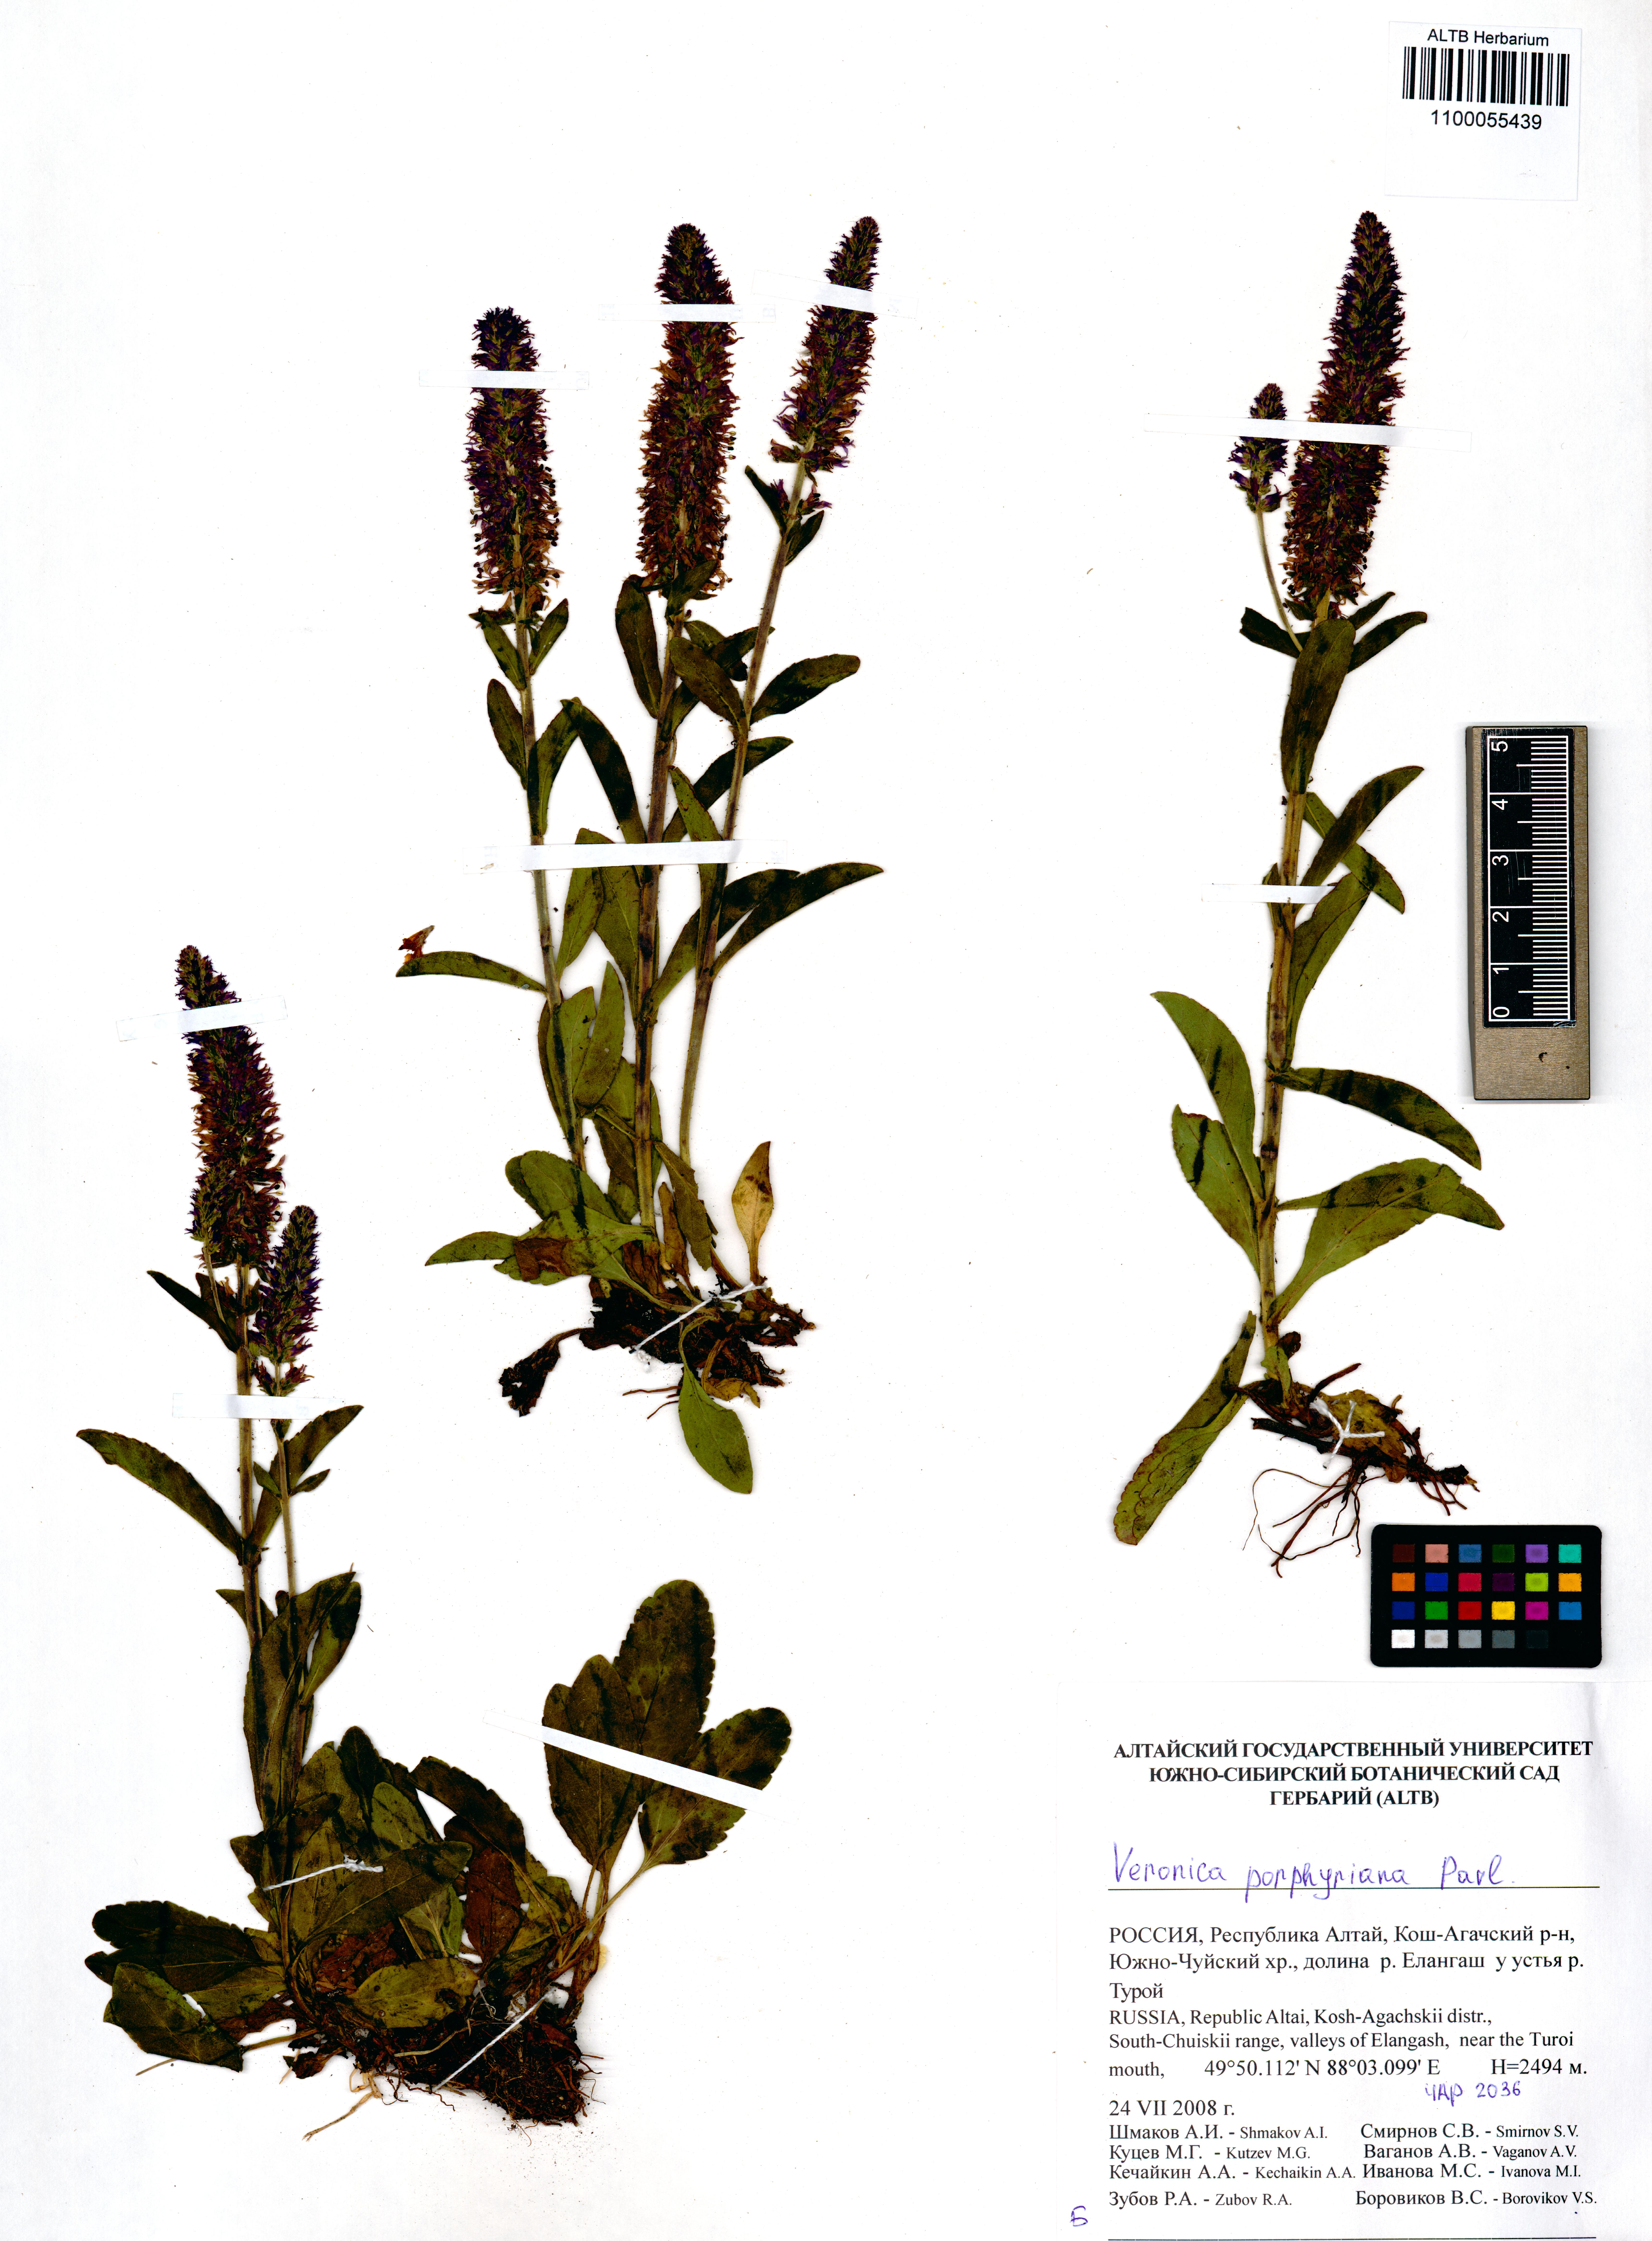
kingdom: Plantae
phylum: Tracheophyta
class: Magnoliopsida
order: Lamiales
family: Plantaginaceae
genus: Veronica
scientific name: Veronica porphyriana
